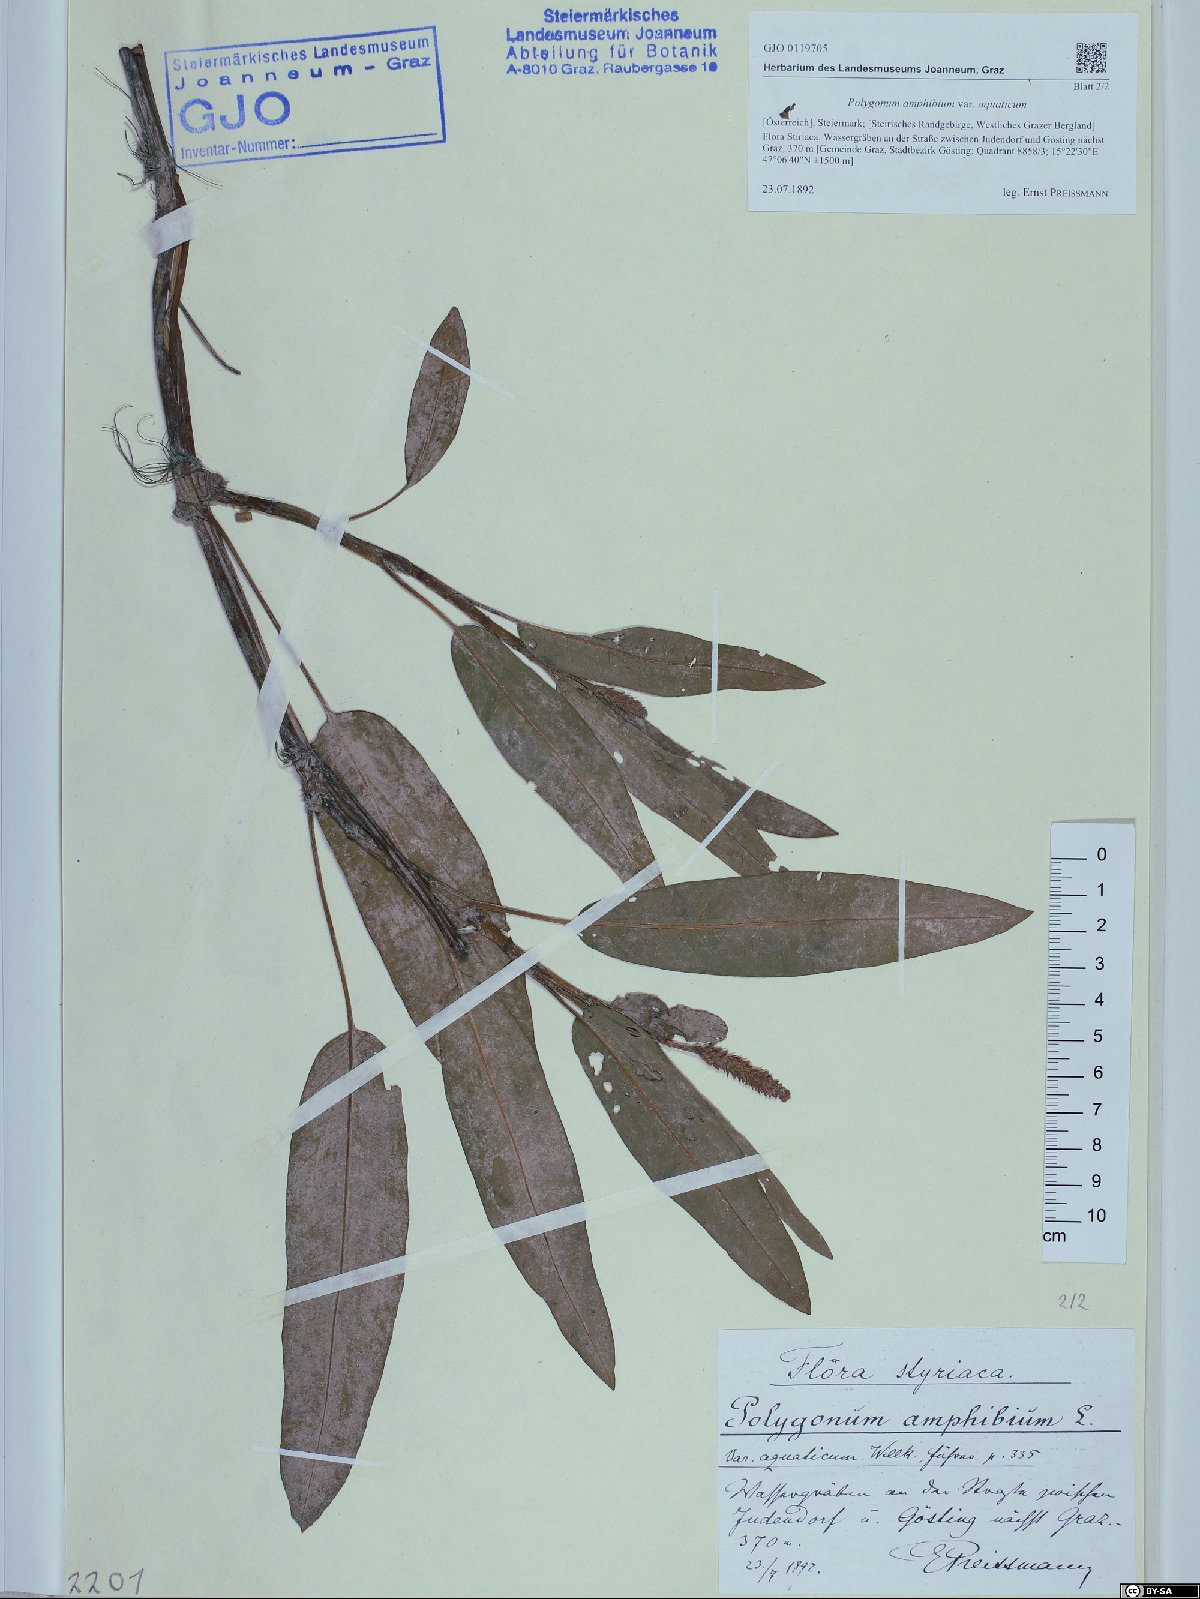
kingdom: Plantae
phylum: Tracheophyta
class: Magnoliopsida
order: Caryophyllales
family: Polygonaceae
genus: Persicaria
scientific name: Persicaria amphibia
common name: Amphibious bistort
